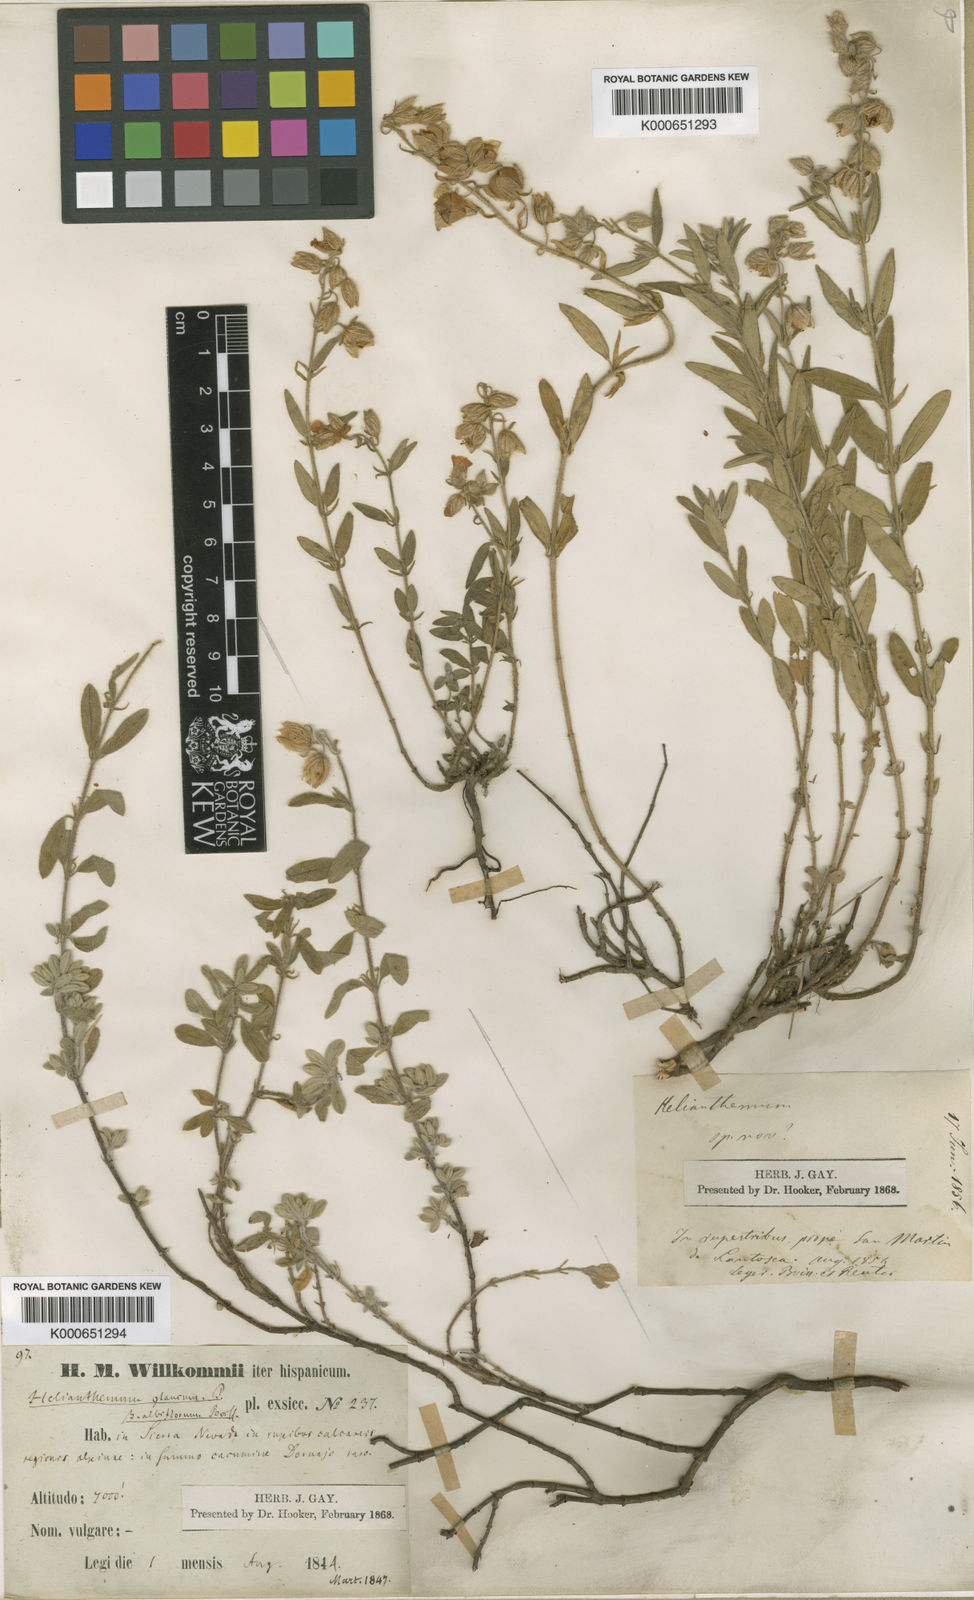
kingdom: Plantae
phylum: Tracheophyta
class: Magnoliopsida
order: Malvales
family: Cistaceae
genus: Helianthemum
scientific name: Helianthemum croceum
